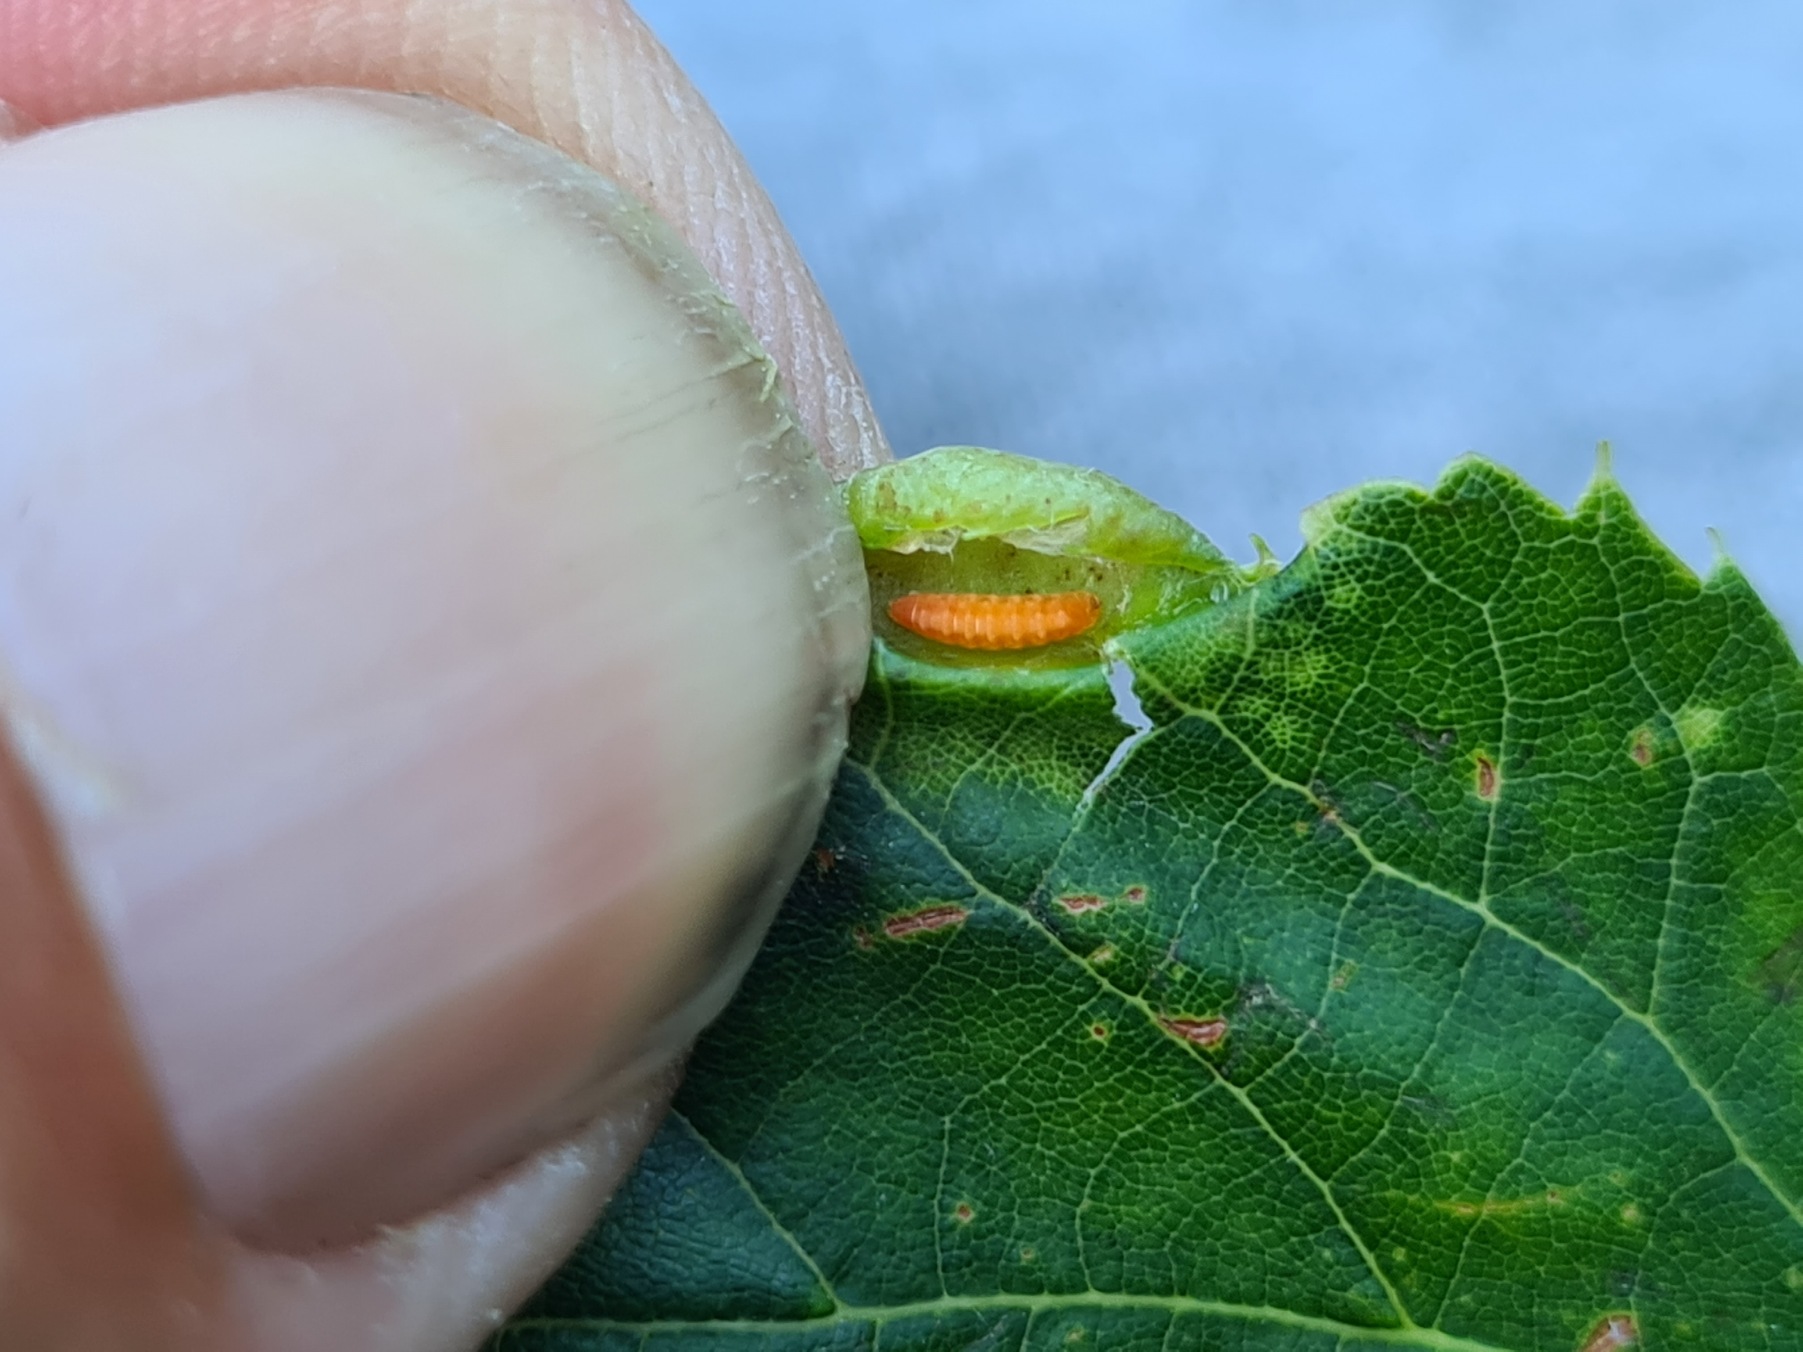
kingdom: Animalia
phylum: Arthropoda
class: Insecta
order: Diptera
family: Cecidomyiidae
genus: Dasineura
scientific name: Dasineura tiliae
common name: Linderullegalmyg
